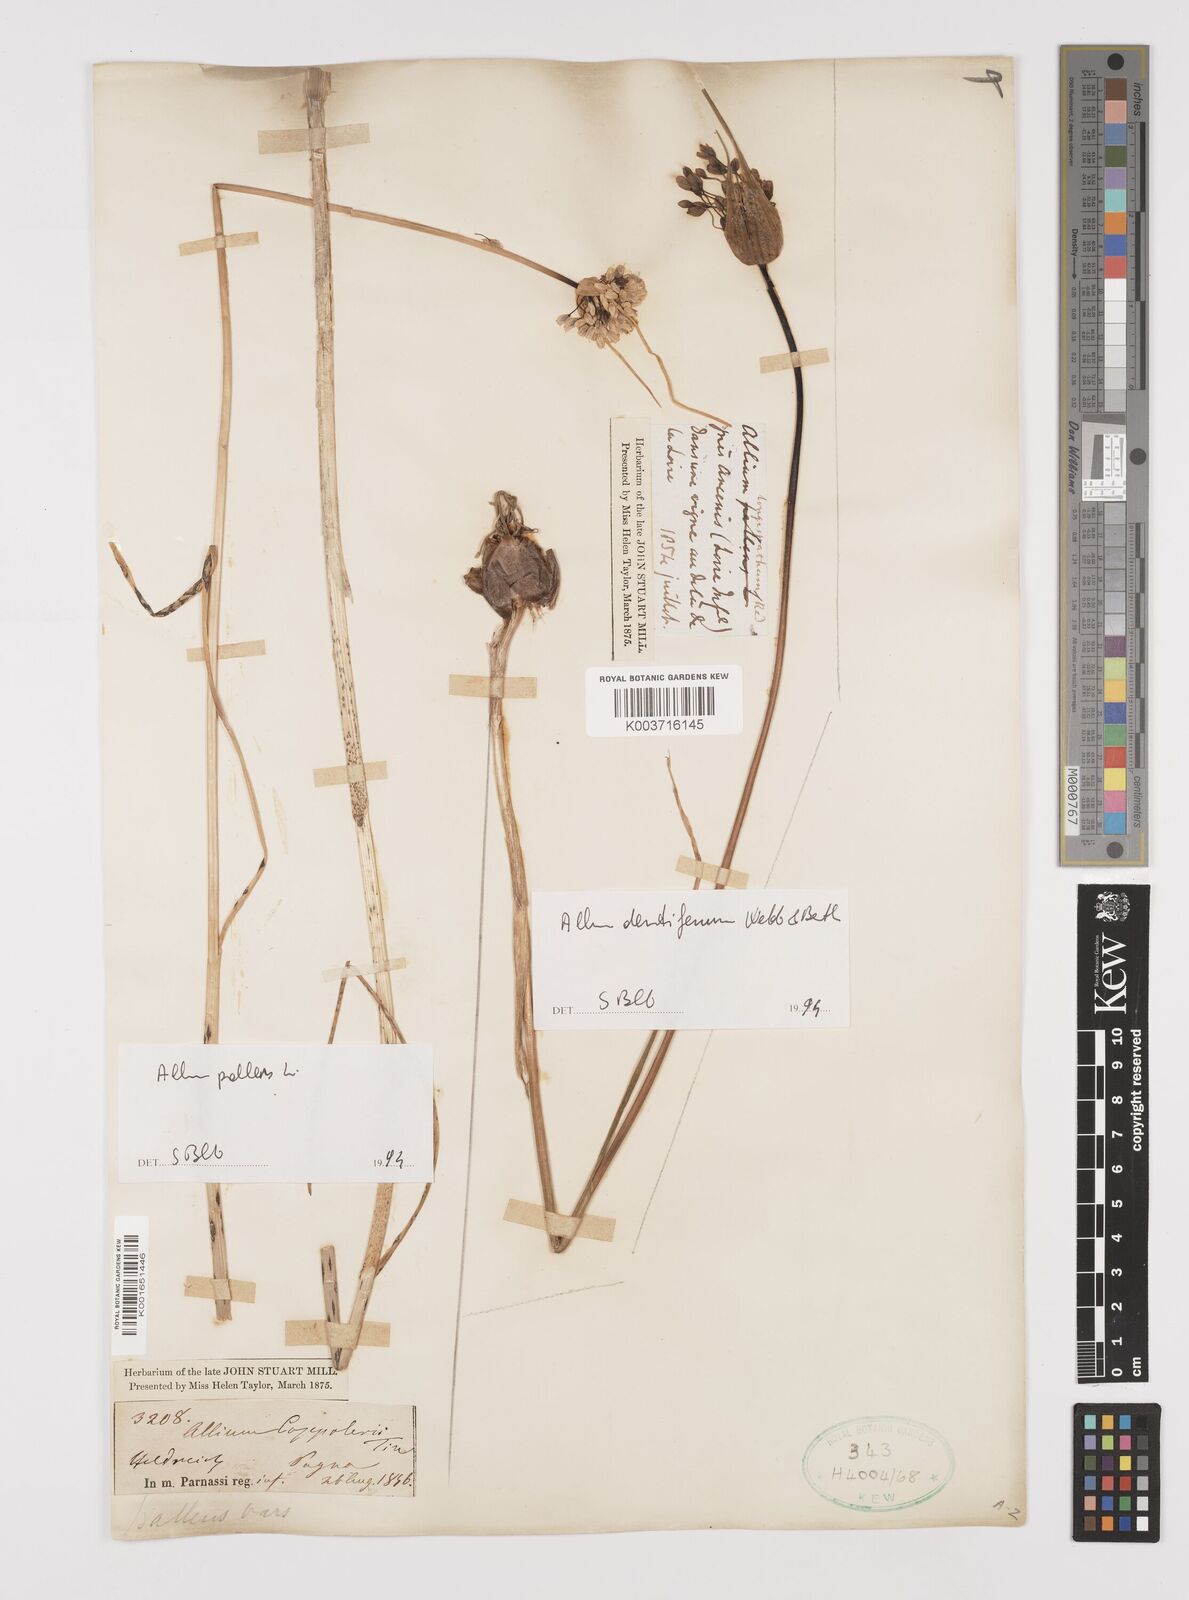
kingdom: Plantae
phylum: Tracheophyta
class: Liliopsida
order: Asparagales
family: Amaryllidaceae
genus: Allium
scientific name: Allium pallens
